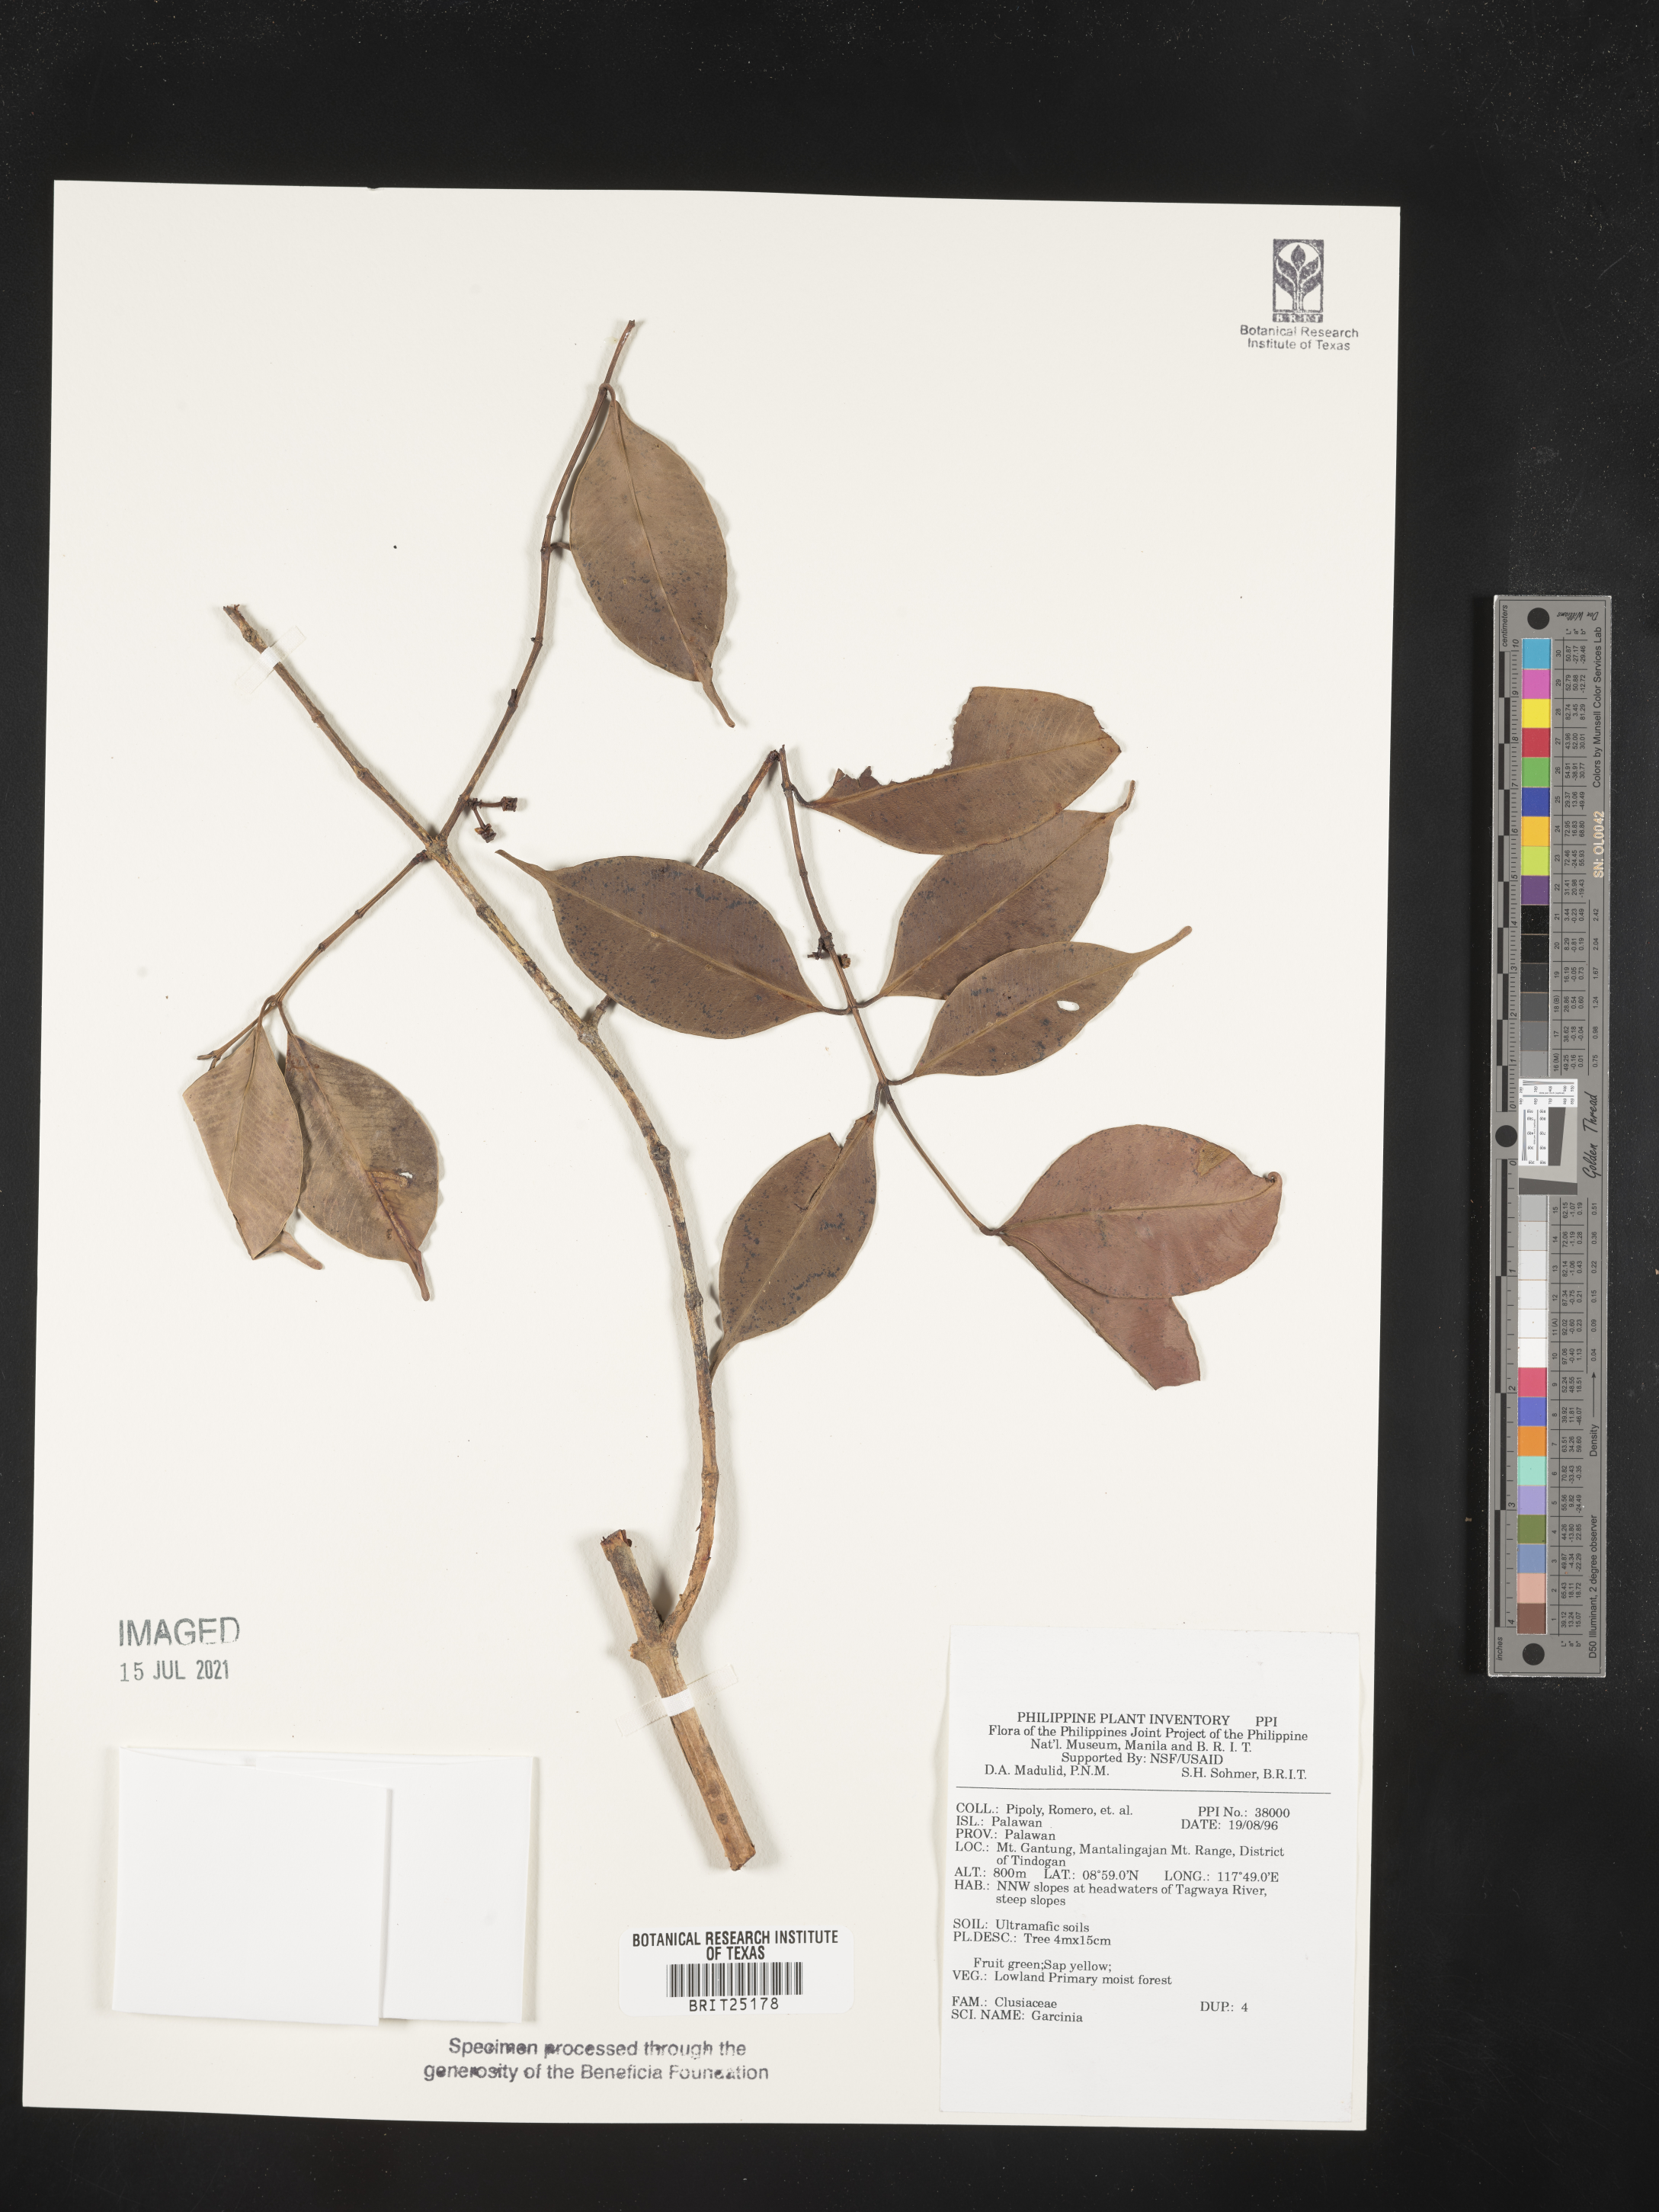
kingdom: Plantae
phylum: Tracheophyta
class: Magnoliopsida
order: Malpighiales
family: Clusiaceae
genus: Garcinia
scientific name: Garcinia
